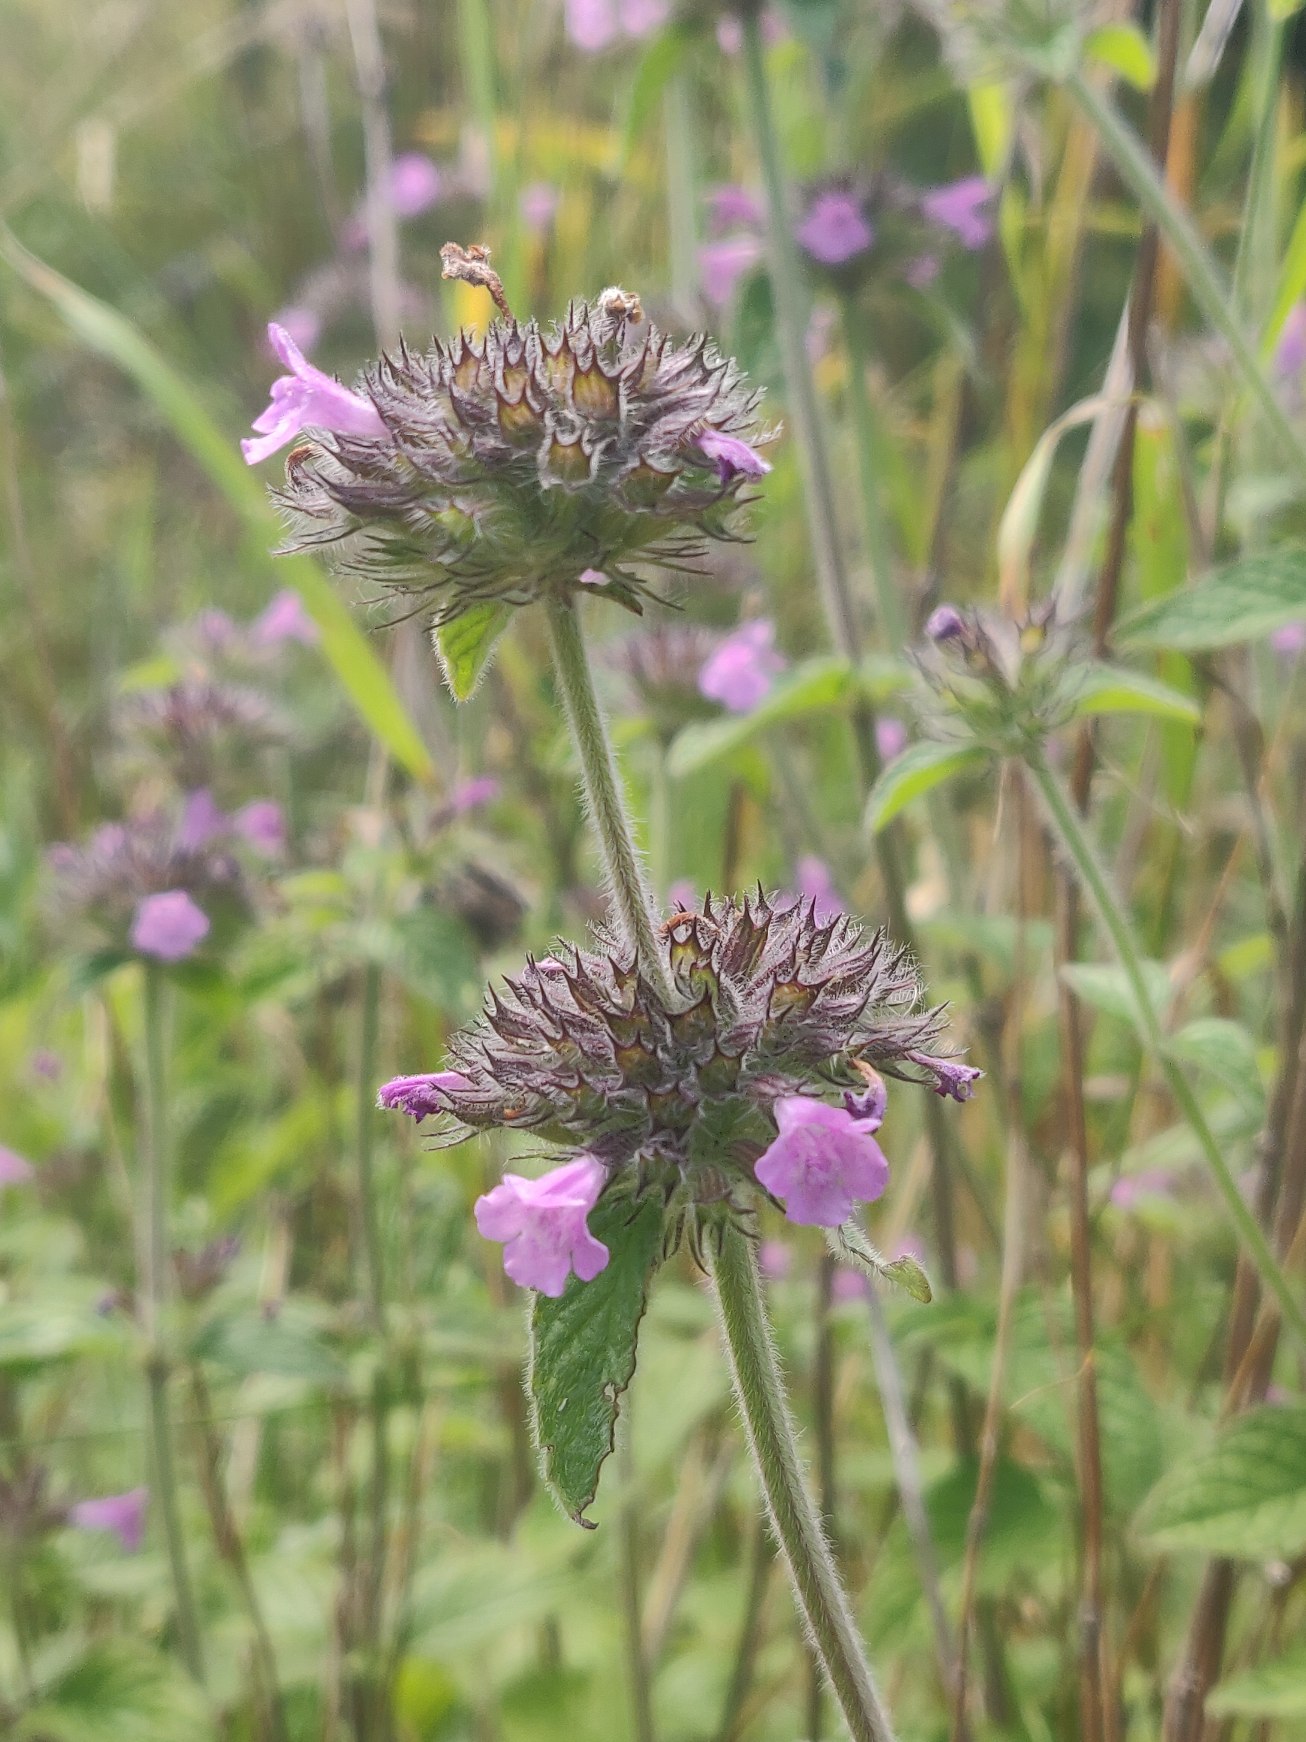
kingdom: Plantae
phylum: Tracheophyta
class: Magnoliopsida
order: Lamiales
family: Lamiaceae
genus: Clinopodium
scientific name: Clinopodium vulgare
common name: Kransbørste
